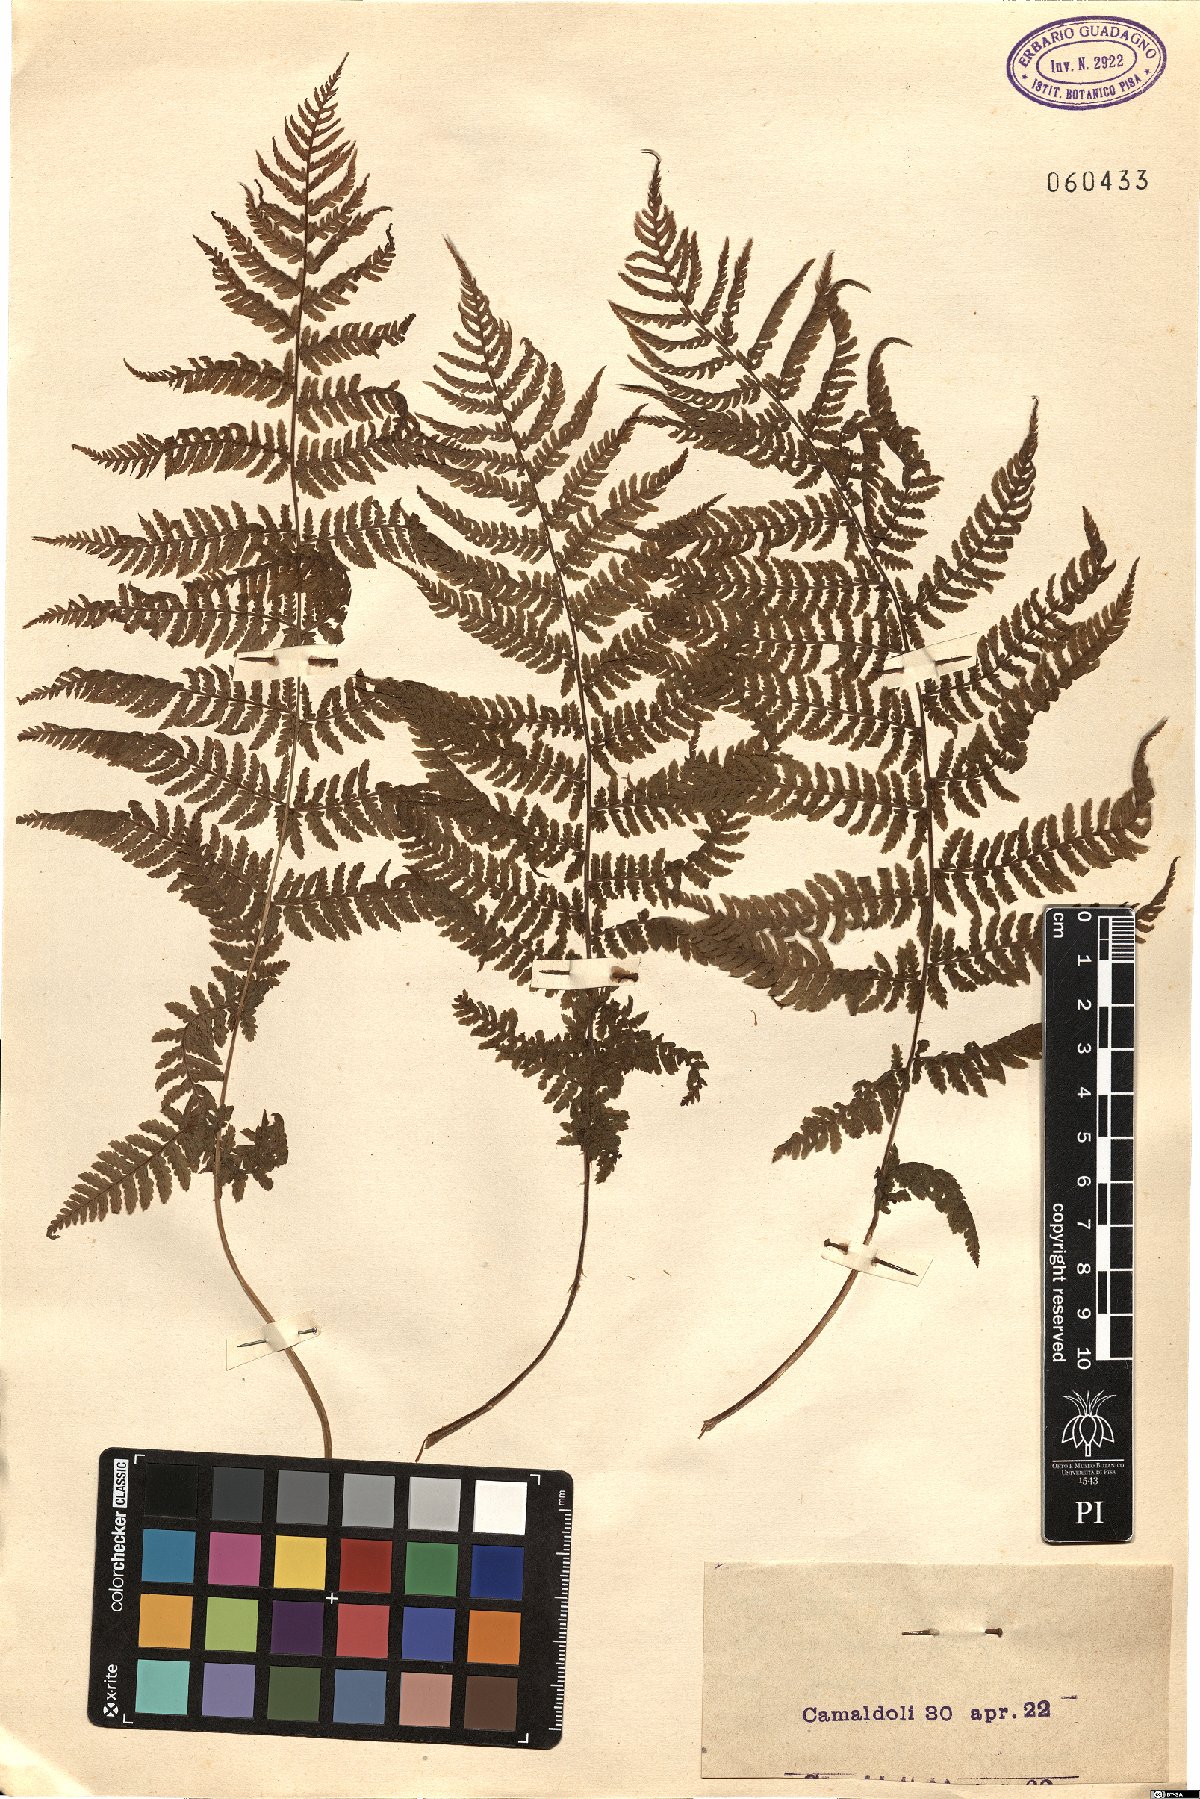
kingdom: Plantae
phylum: Tracheophyta
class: Polypodiopsida
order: Polypodiales
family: Dryopteridaceae
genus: Dryopteris
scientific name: Dryopteris
